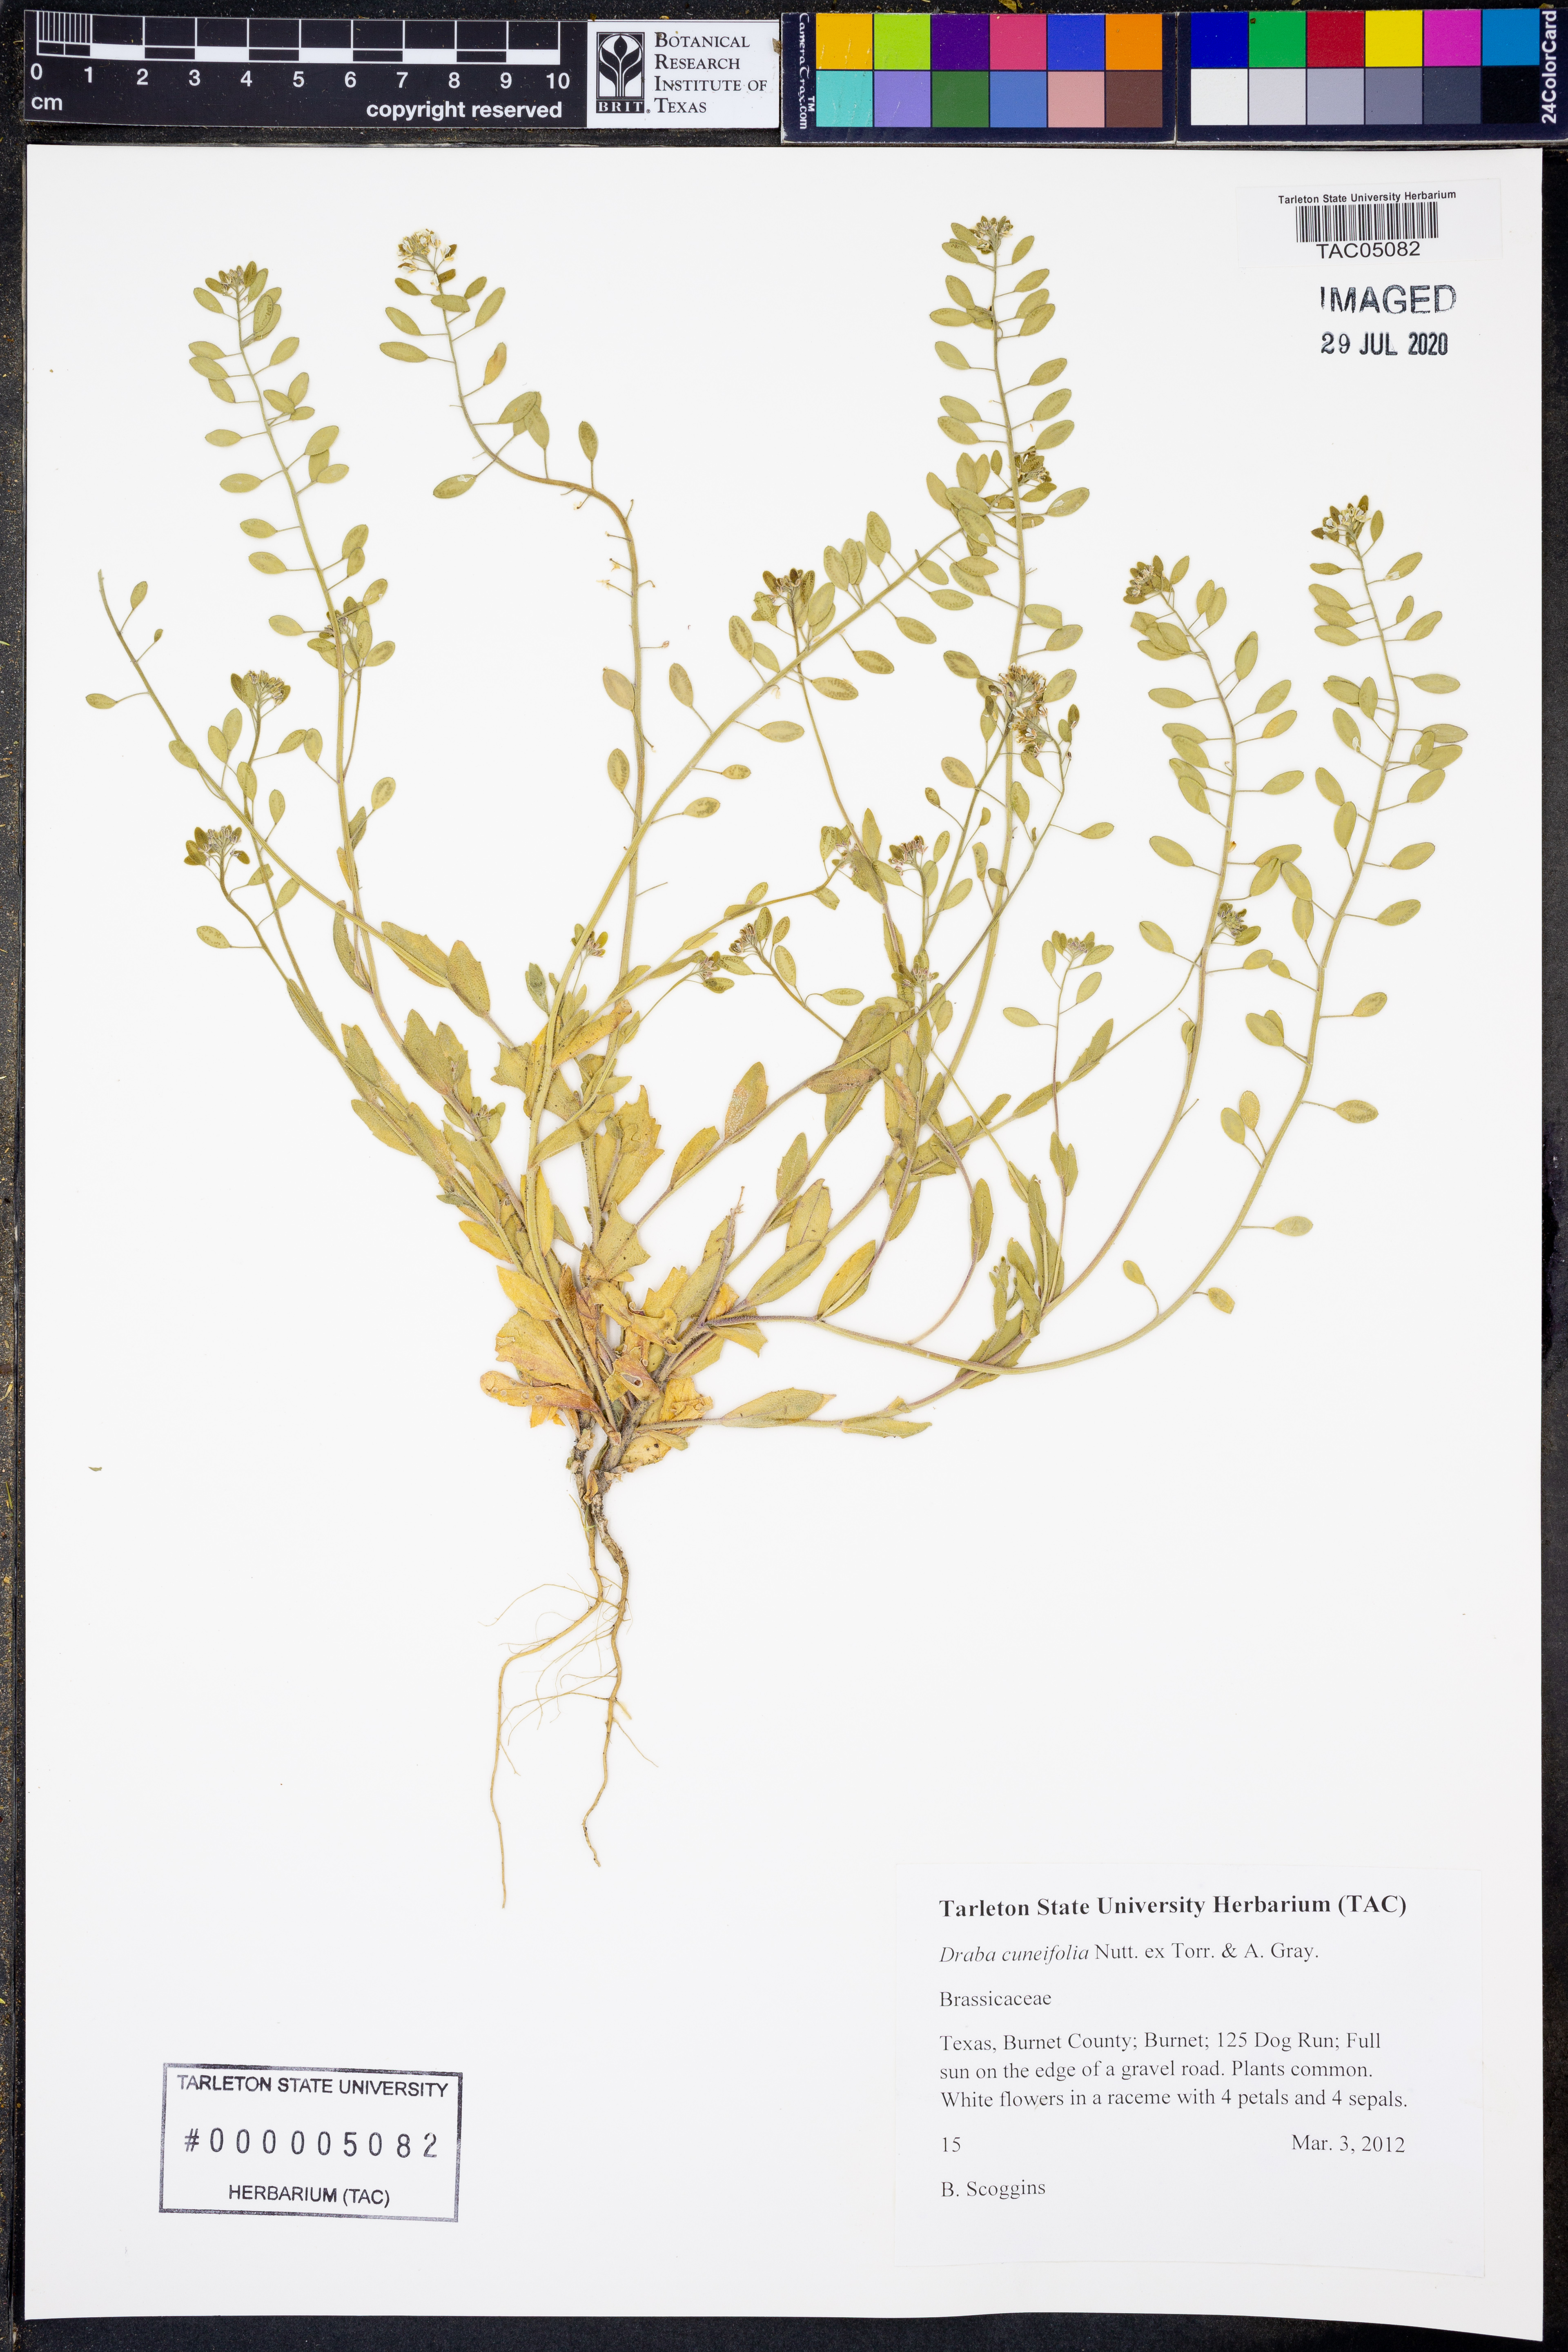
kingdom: Plantae
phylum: Tracheophyta
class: Magnoliopsida
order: Brassicales
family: Brassicaceae
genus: Tomostima
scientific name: Tomostima cuneifolia
